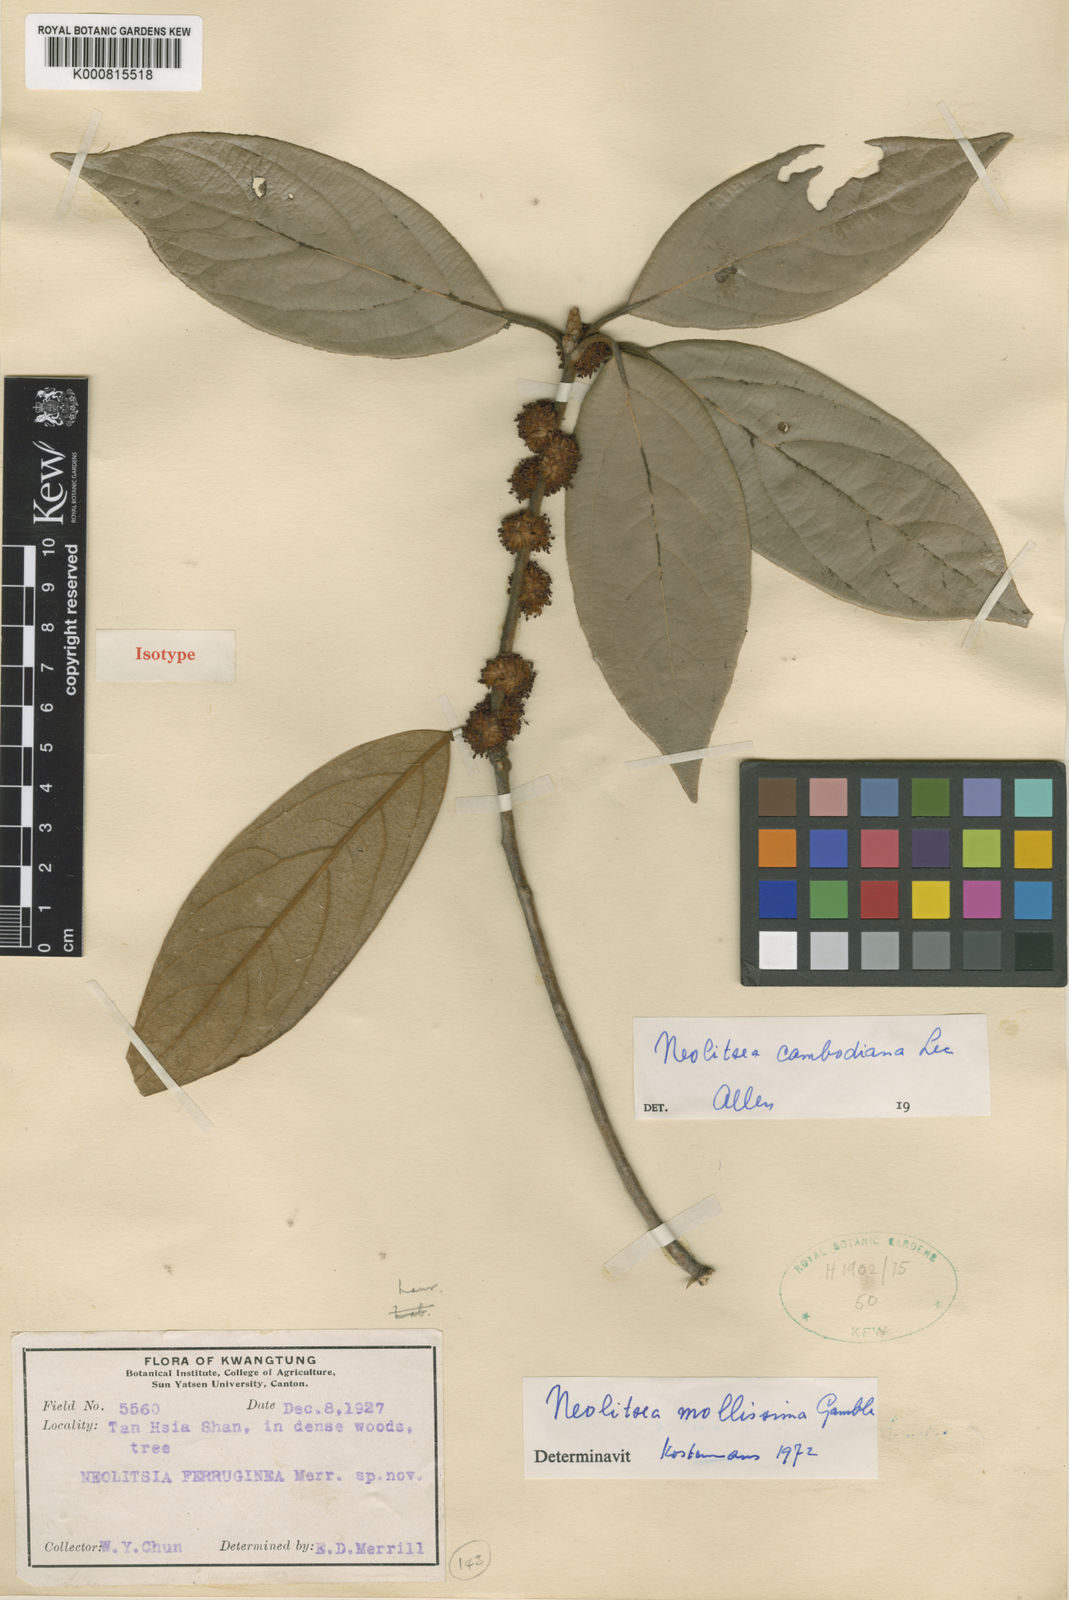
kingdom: Plantae
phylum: Tracheophyta
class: Magnoliopsida
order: Laurales
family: Lauraceae
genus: Neolitsea
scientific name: Neolitsea mollissima
